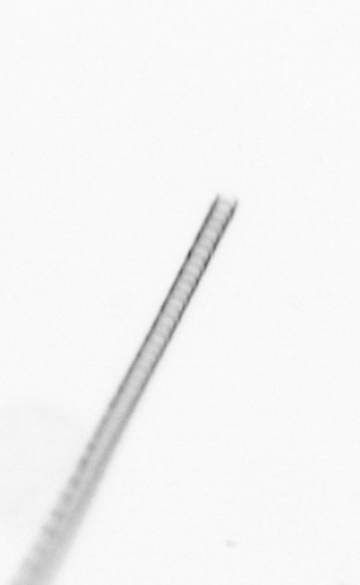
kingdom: Chromista
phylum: Ochrophyta
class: Bacillariophyceae
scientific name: Bacillariophyceae
